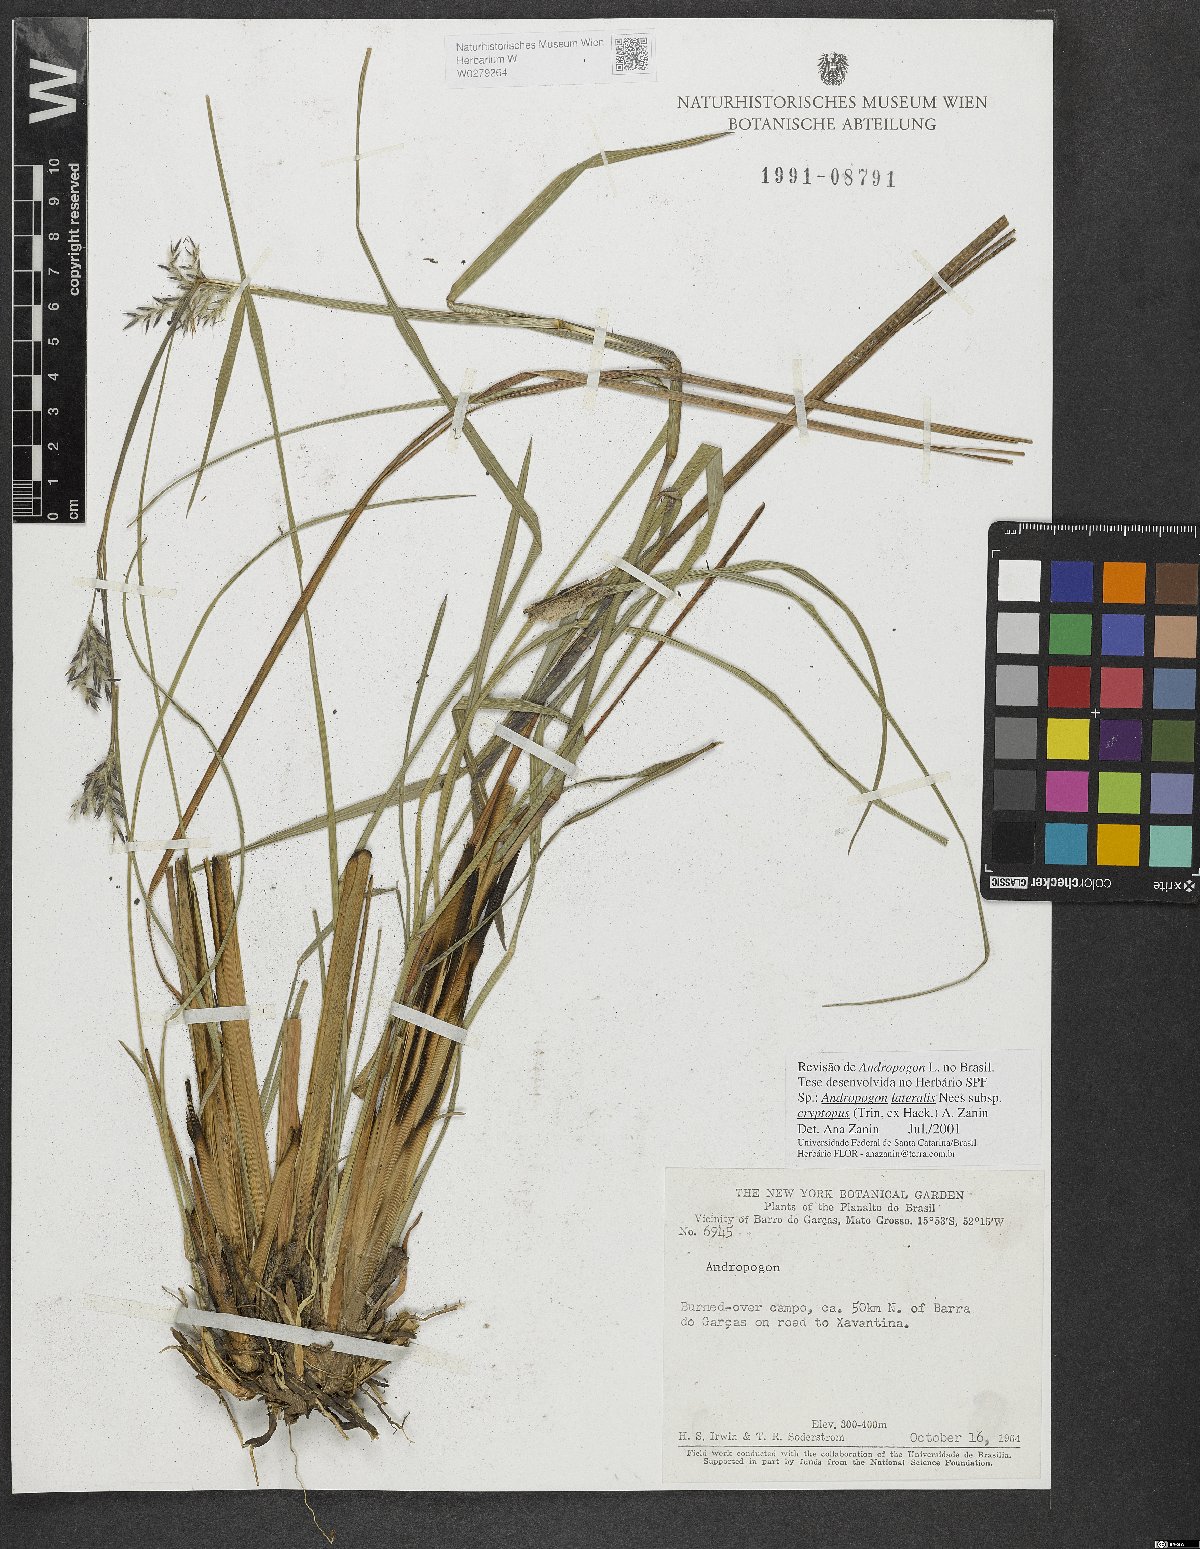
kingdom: Plantae
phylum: Tracheophyta
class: Liliopsida
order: Poales
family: Poaceae
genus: Andropogon
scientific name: Andropogon lateralis
